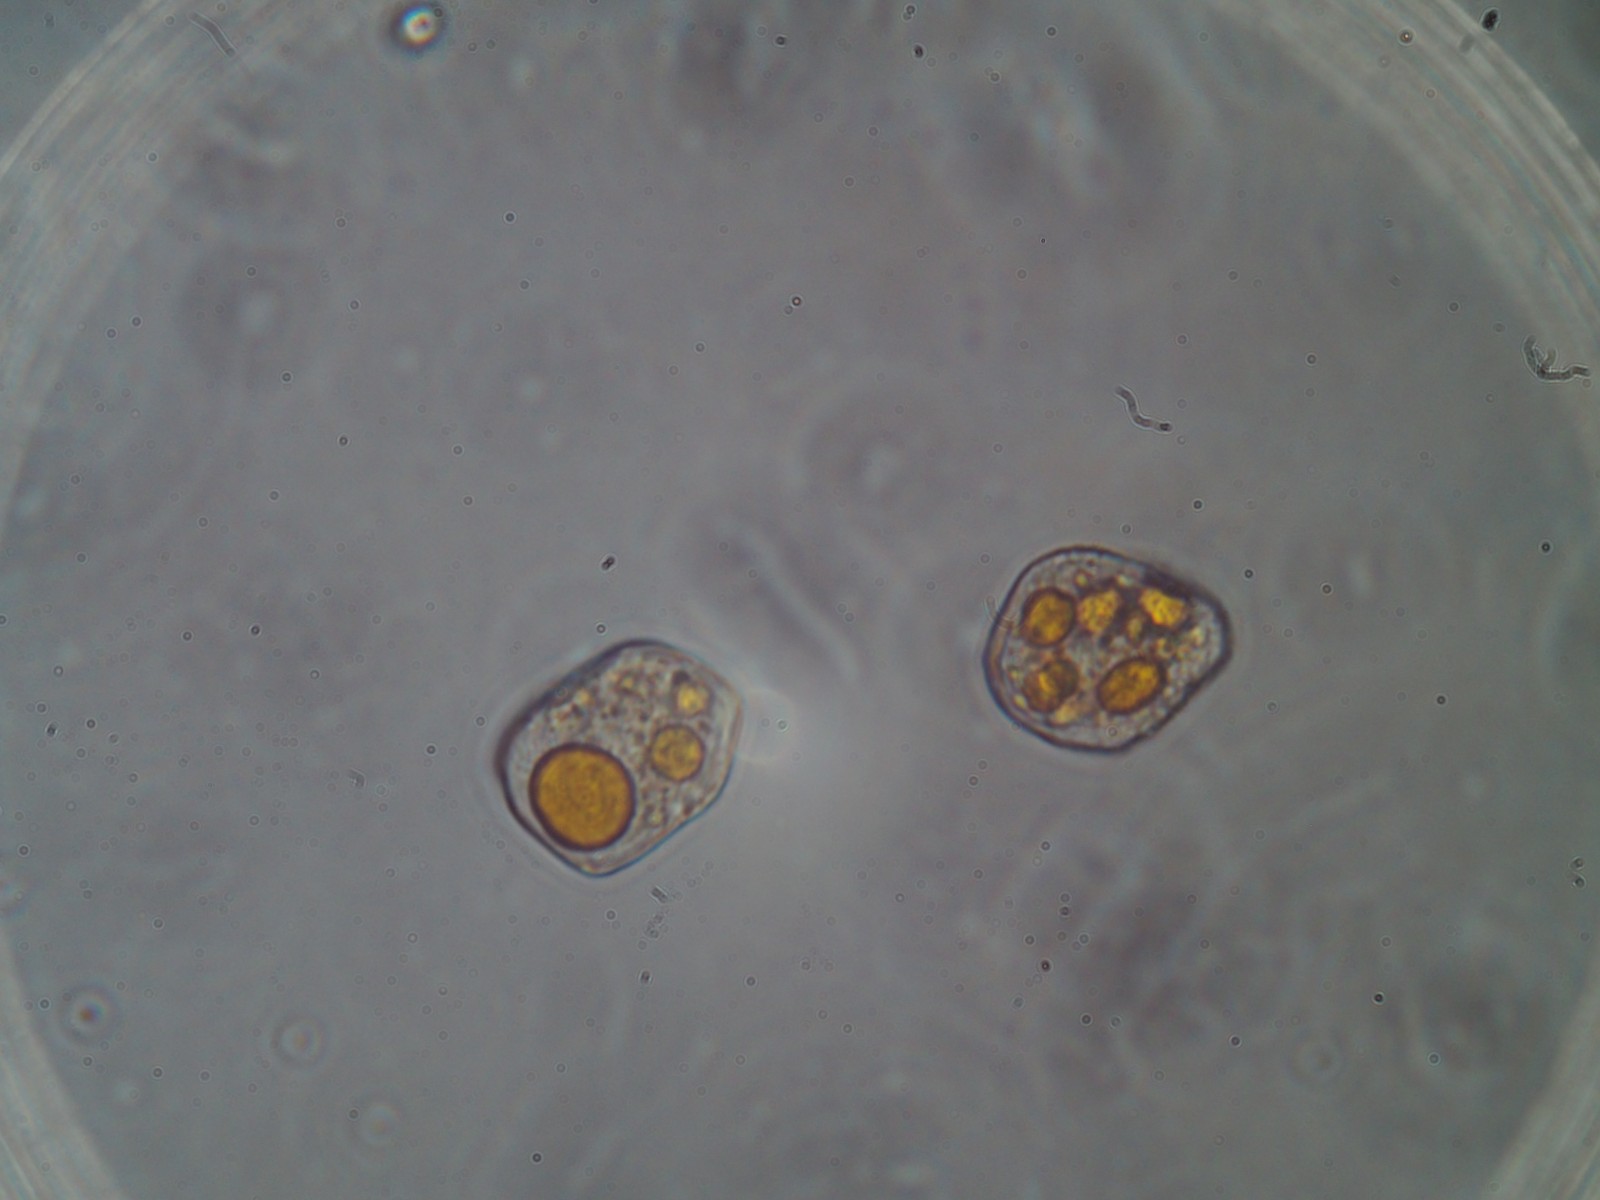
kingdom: Fungi
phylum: Basidiomycota
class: Pucciniomycetes
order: Pucciniales
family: Pucciniaceae
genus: Uromyces
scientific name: Uromyces valerianae
